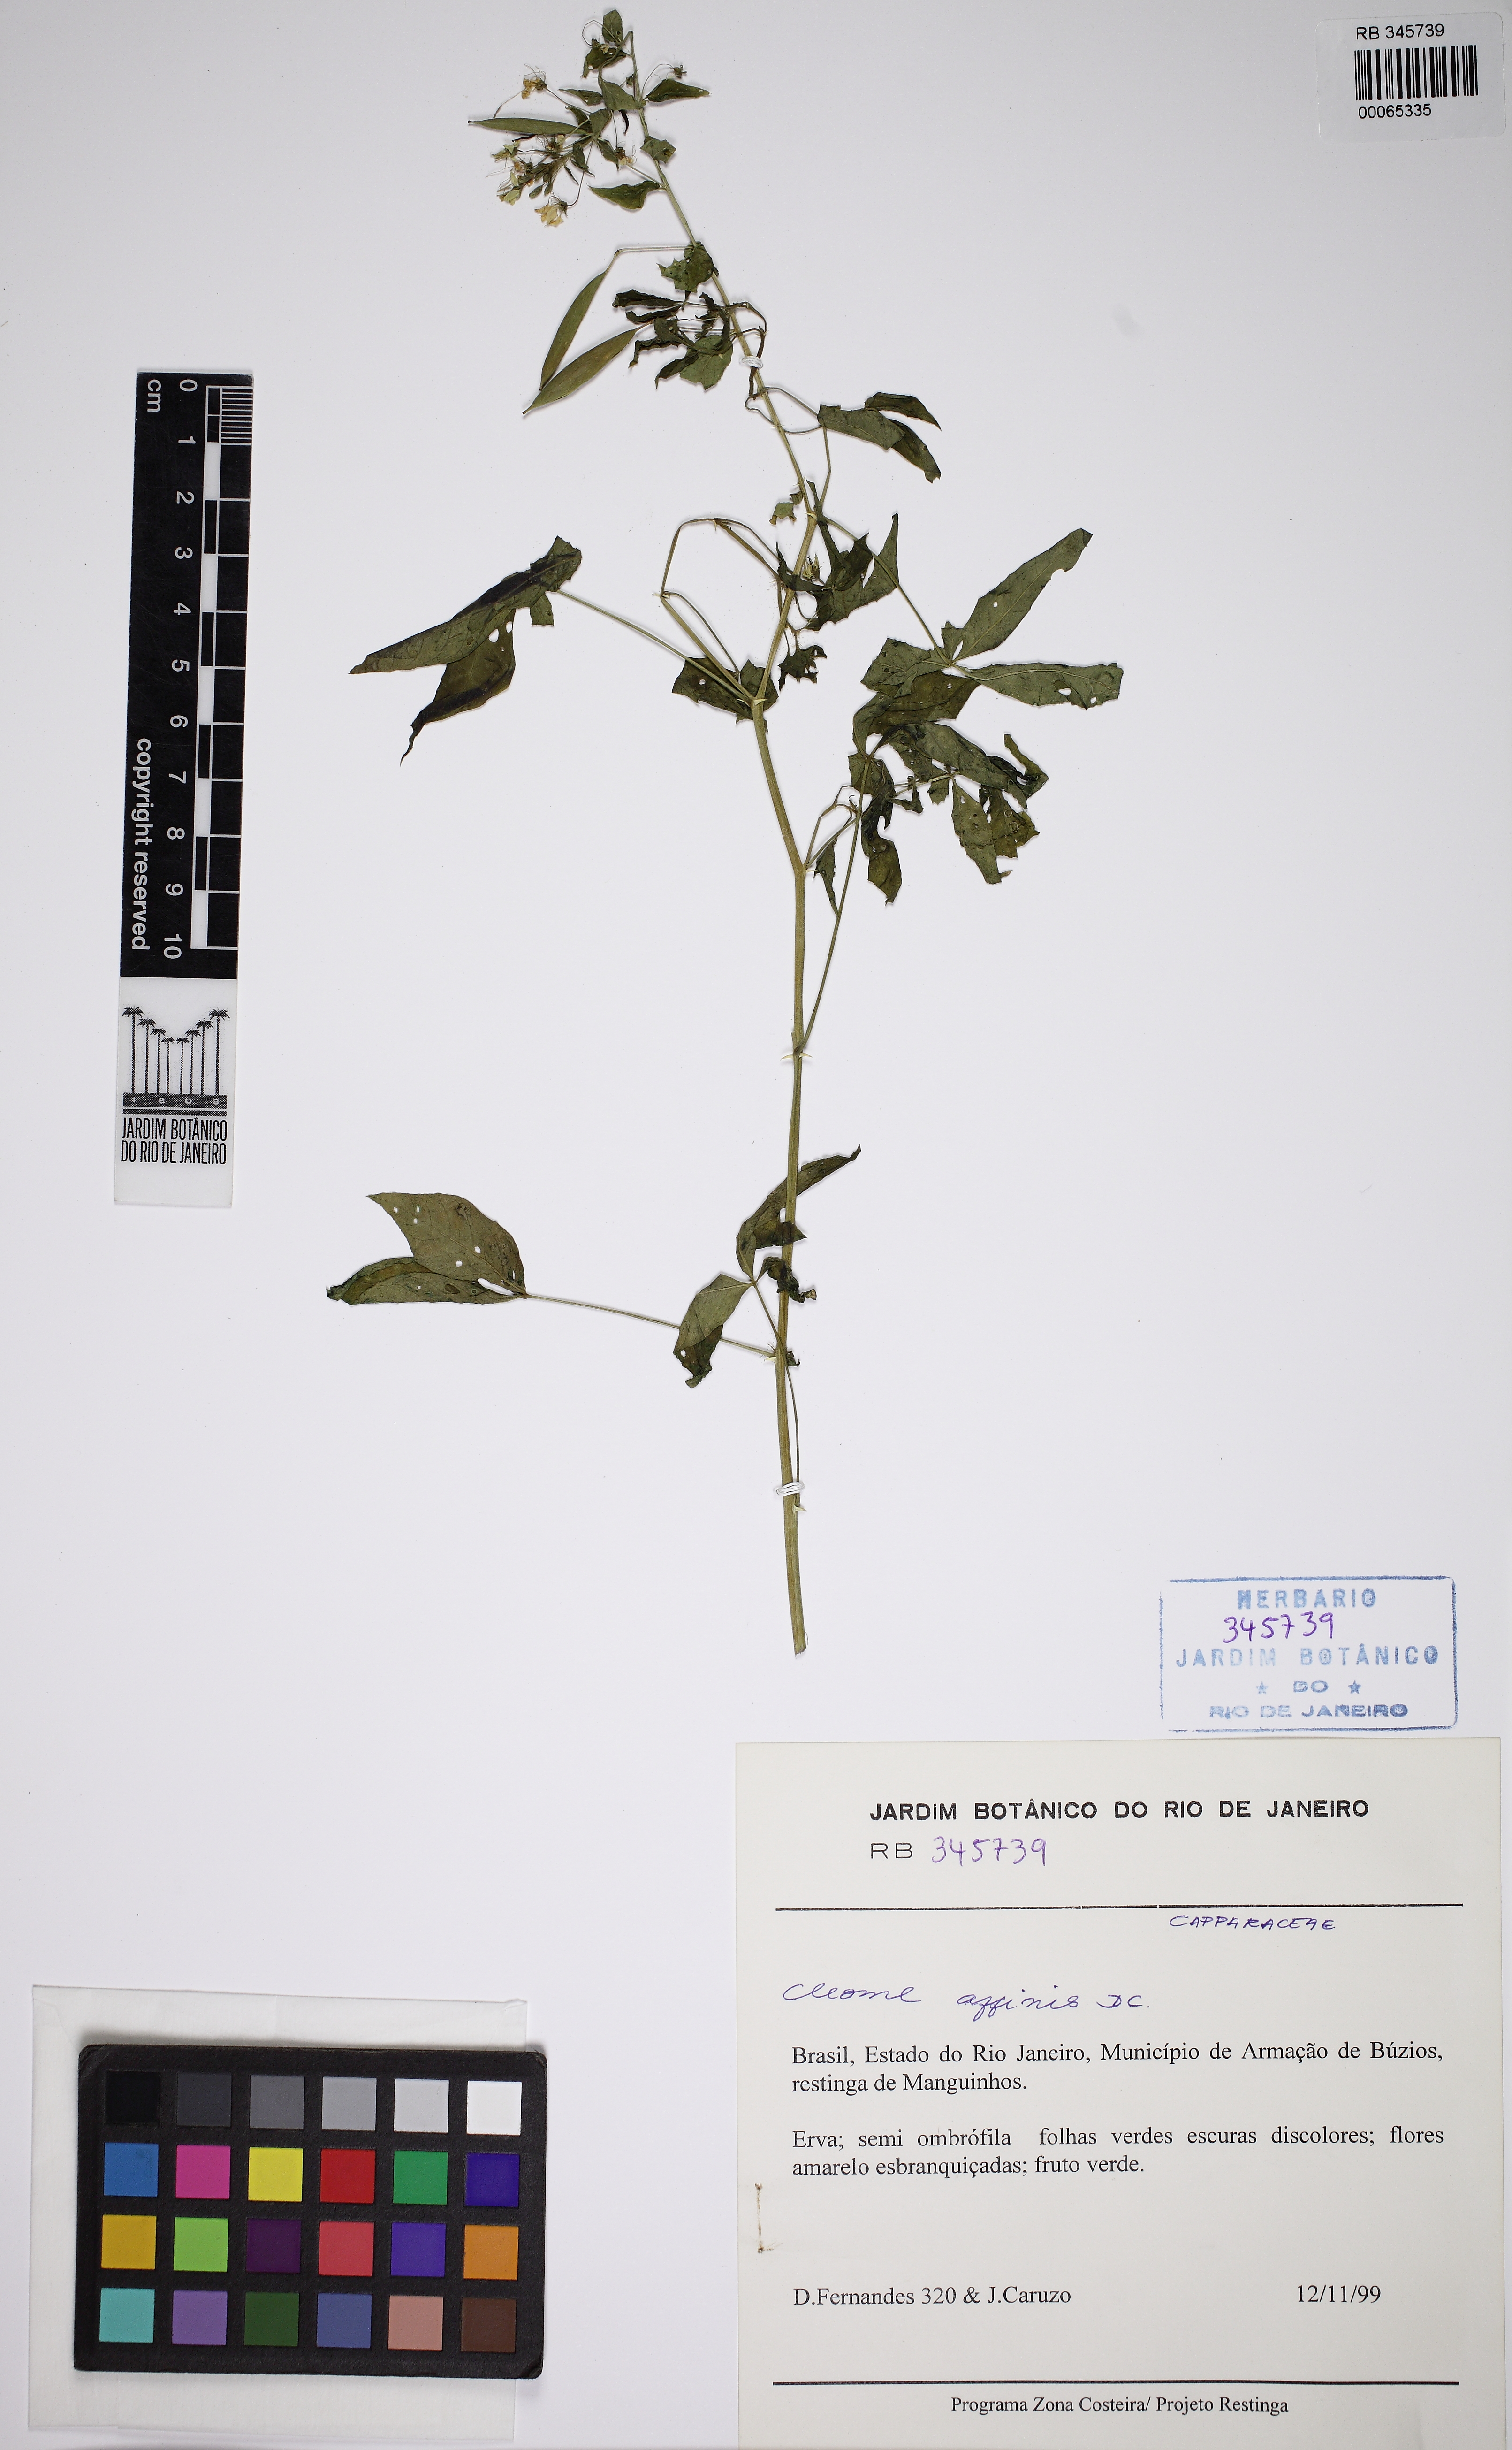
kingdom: Plantae
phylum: Tracheophyta
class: Magnoliopsida
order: Brassicales
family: Cleomaceae
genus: Tarenaya
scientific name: Tarenaya diffusa
